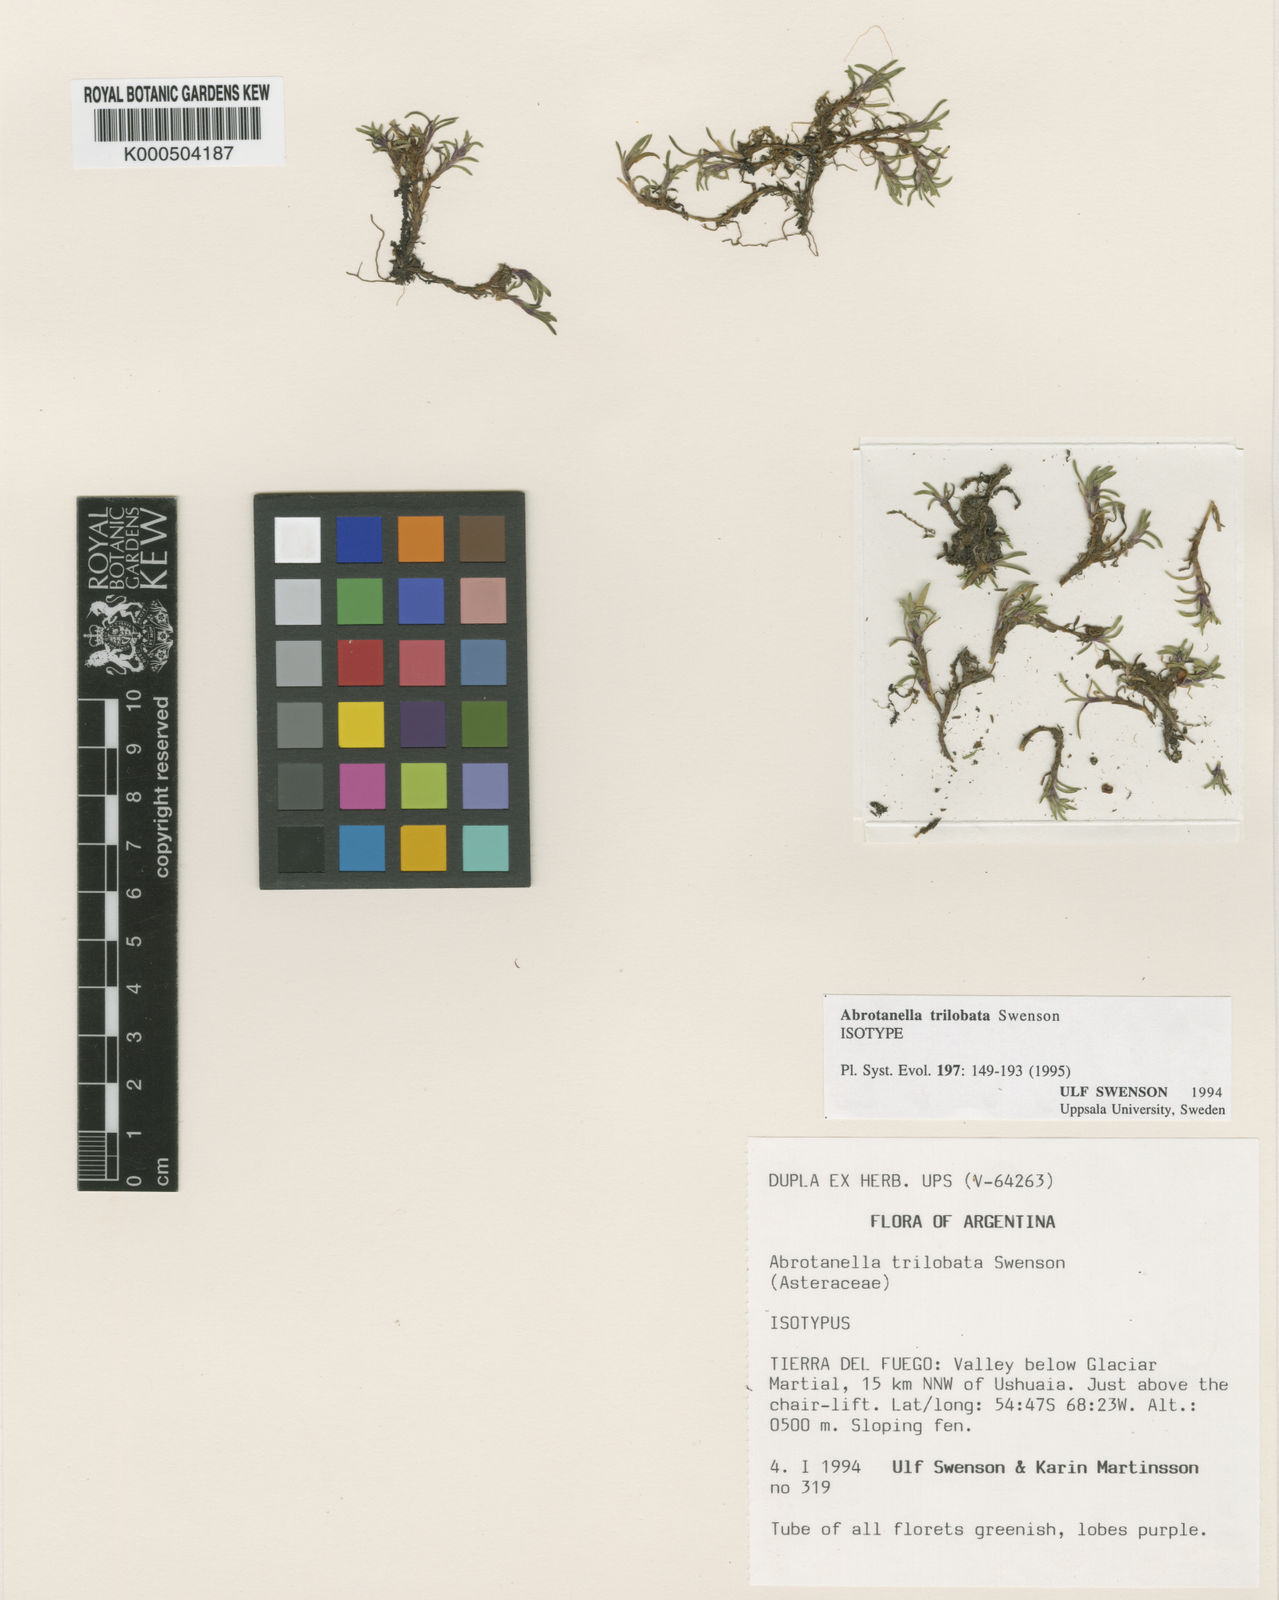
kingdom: Plantae
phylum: Tracheophyta
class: Magnoliopsida
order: Asterales
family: Asteraceae
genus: Abrotanella
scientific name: Abrotanella trilobata
